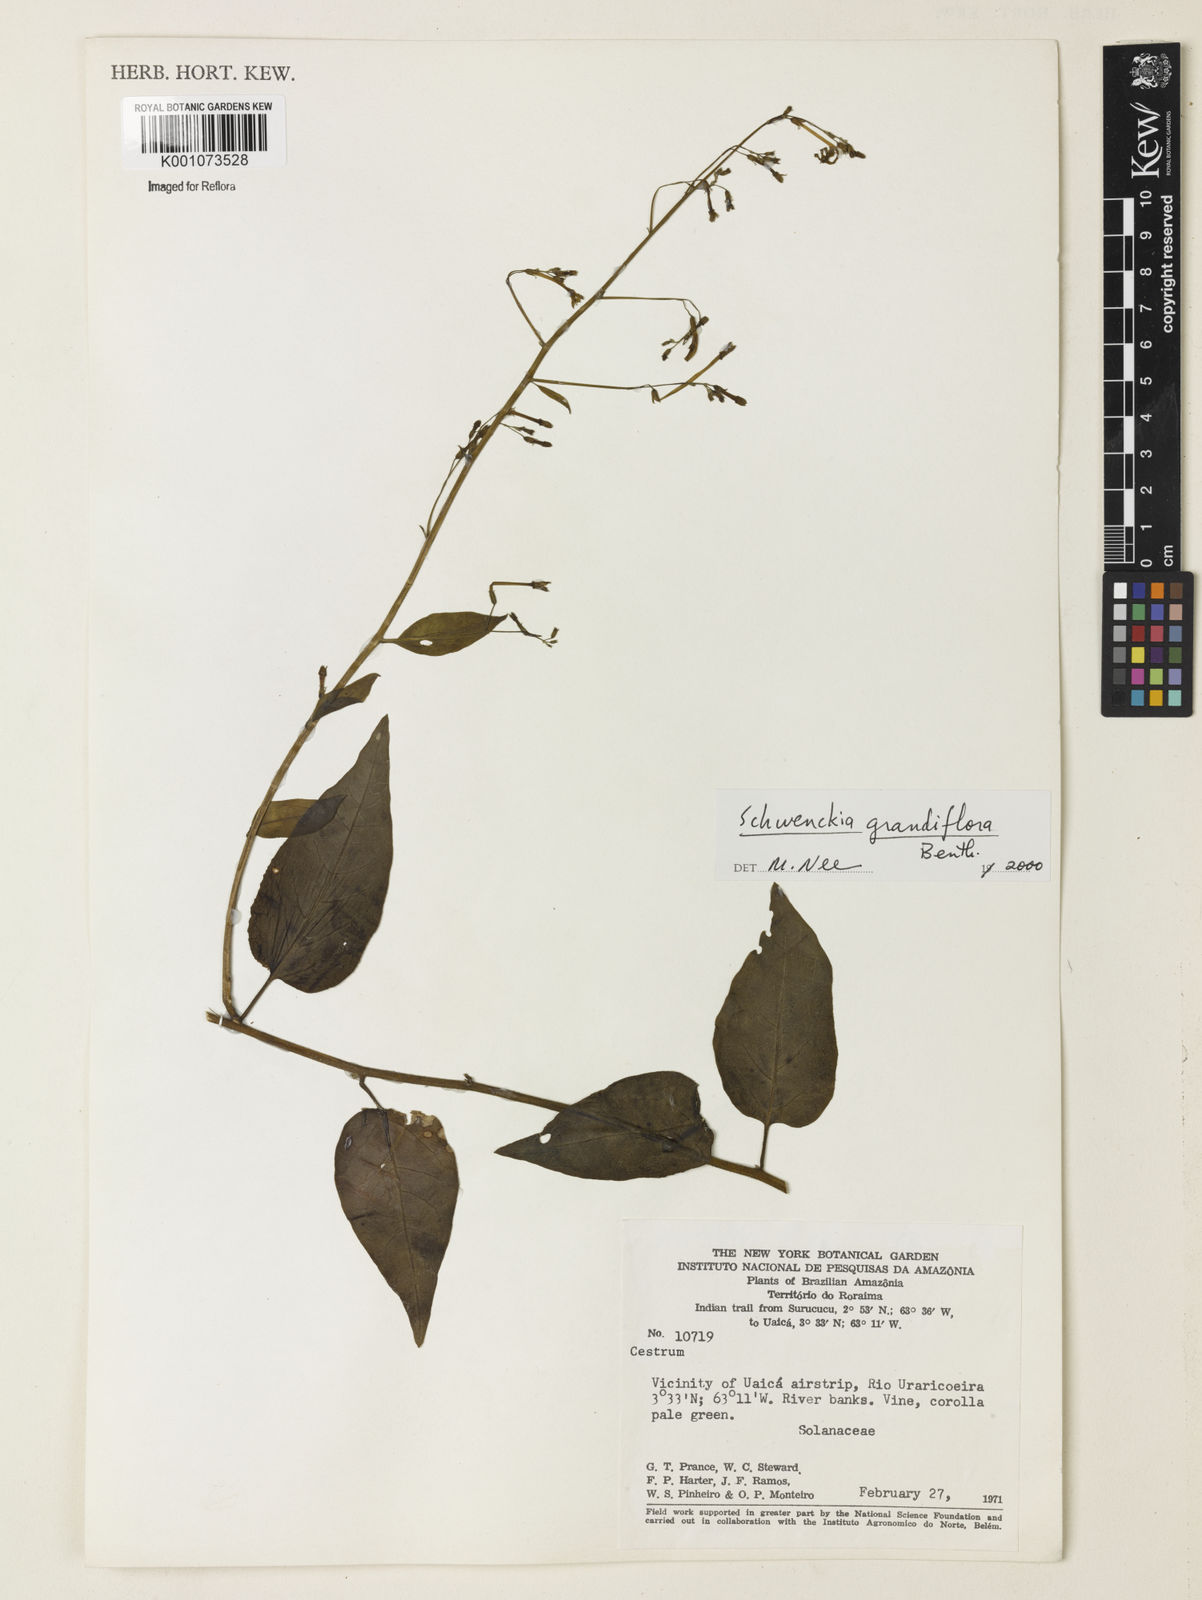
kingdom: Plantae
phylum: Tracheophyta
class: Magnoliopsida
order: Solanales
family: Solanaceae
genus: Schwenckia
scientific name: Schwenckia grandiflora
